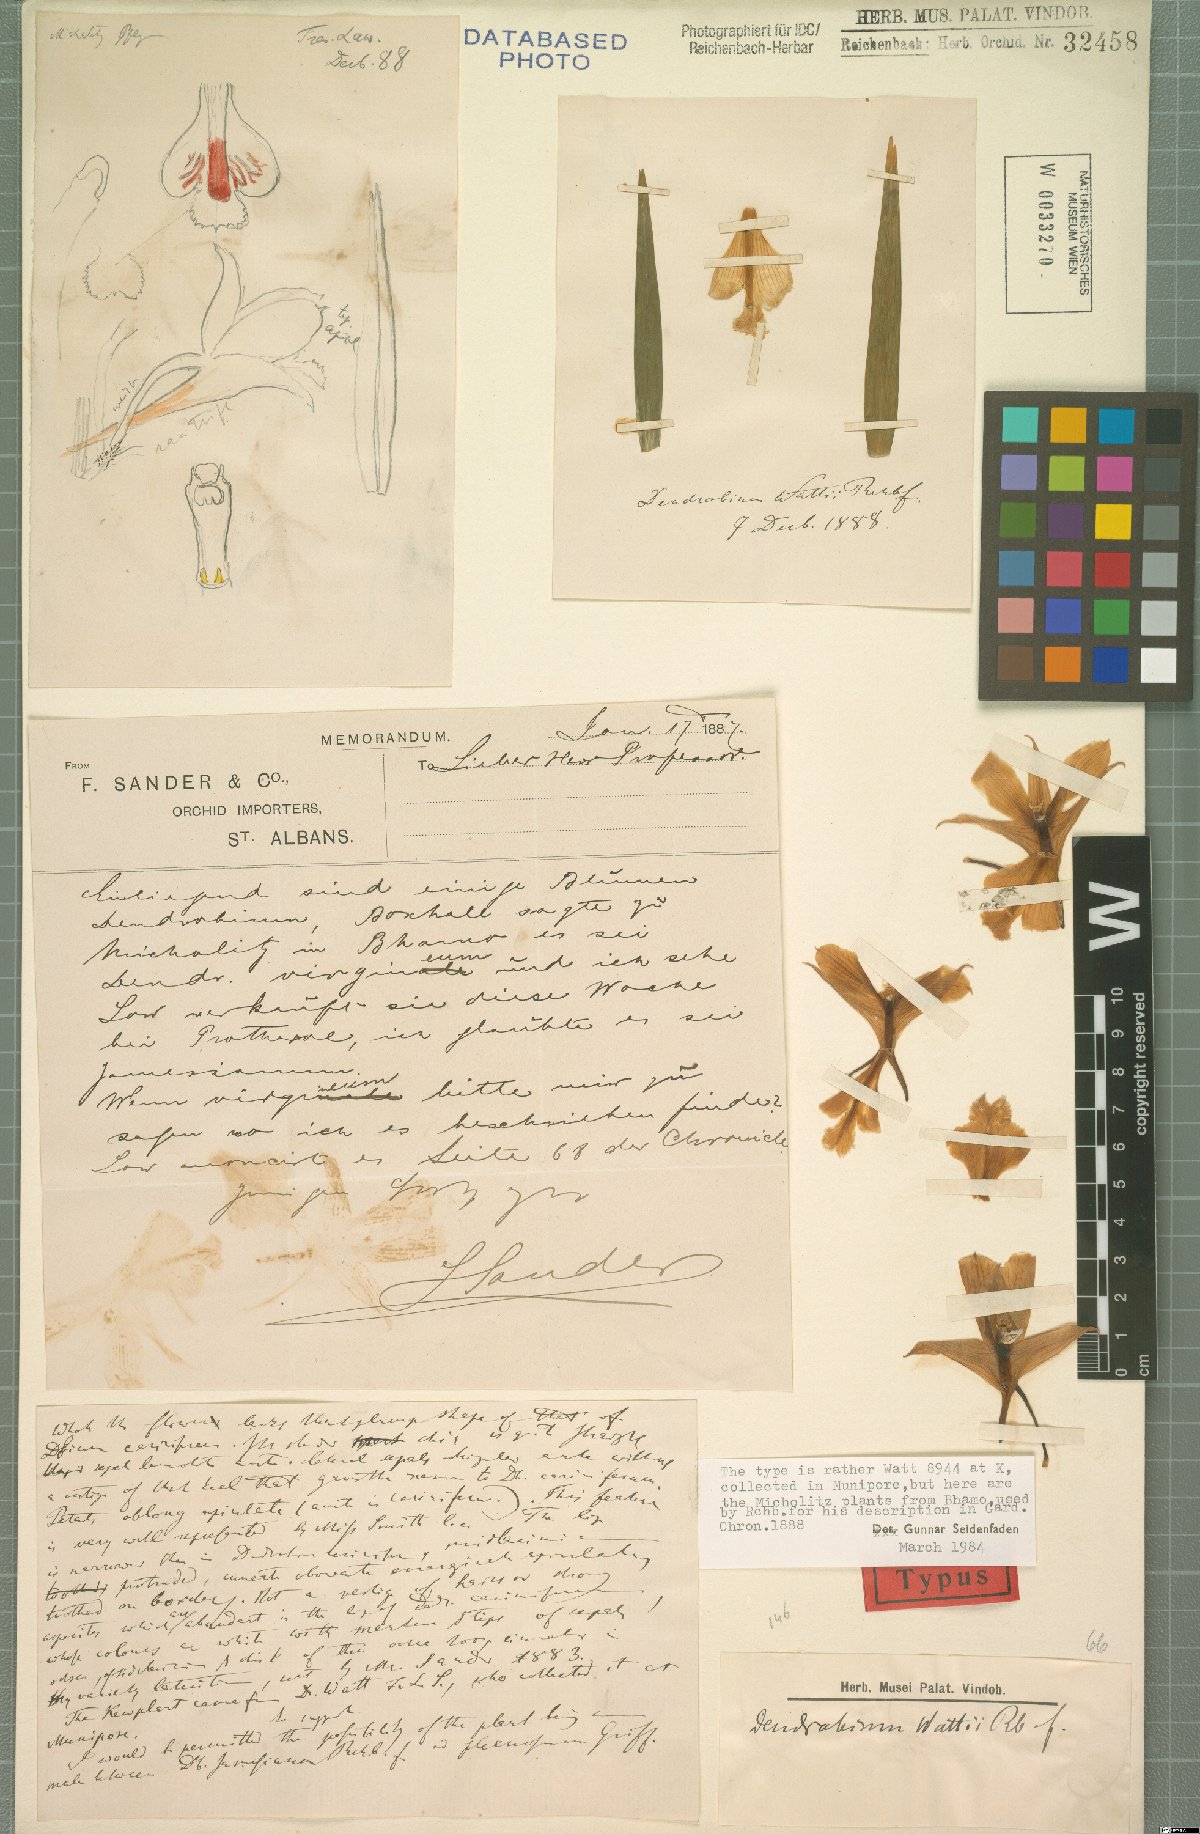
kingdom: Plantae
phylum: Tracheophyta
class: Liliopsida
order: Asparagales
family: Orchidaceae
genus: Dendrobium
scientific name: Dendrobium wattii
